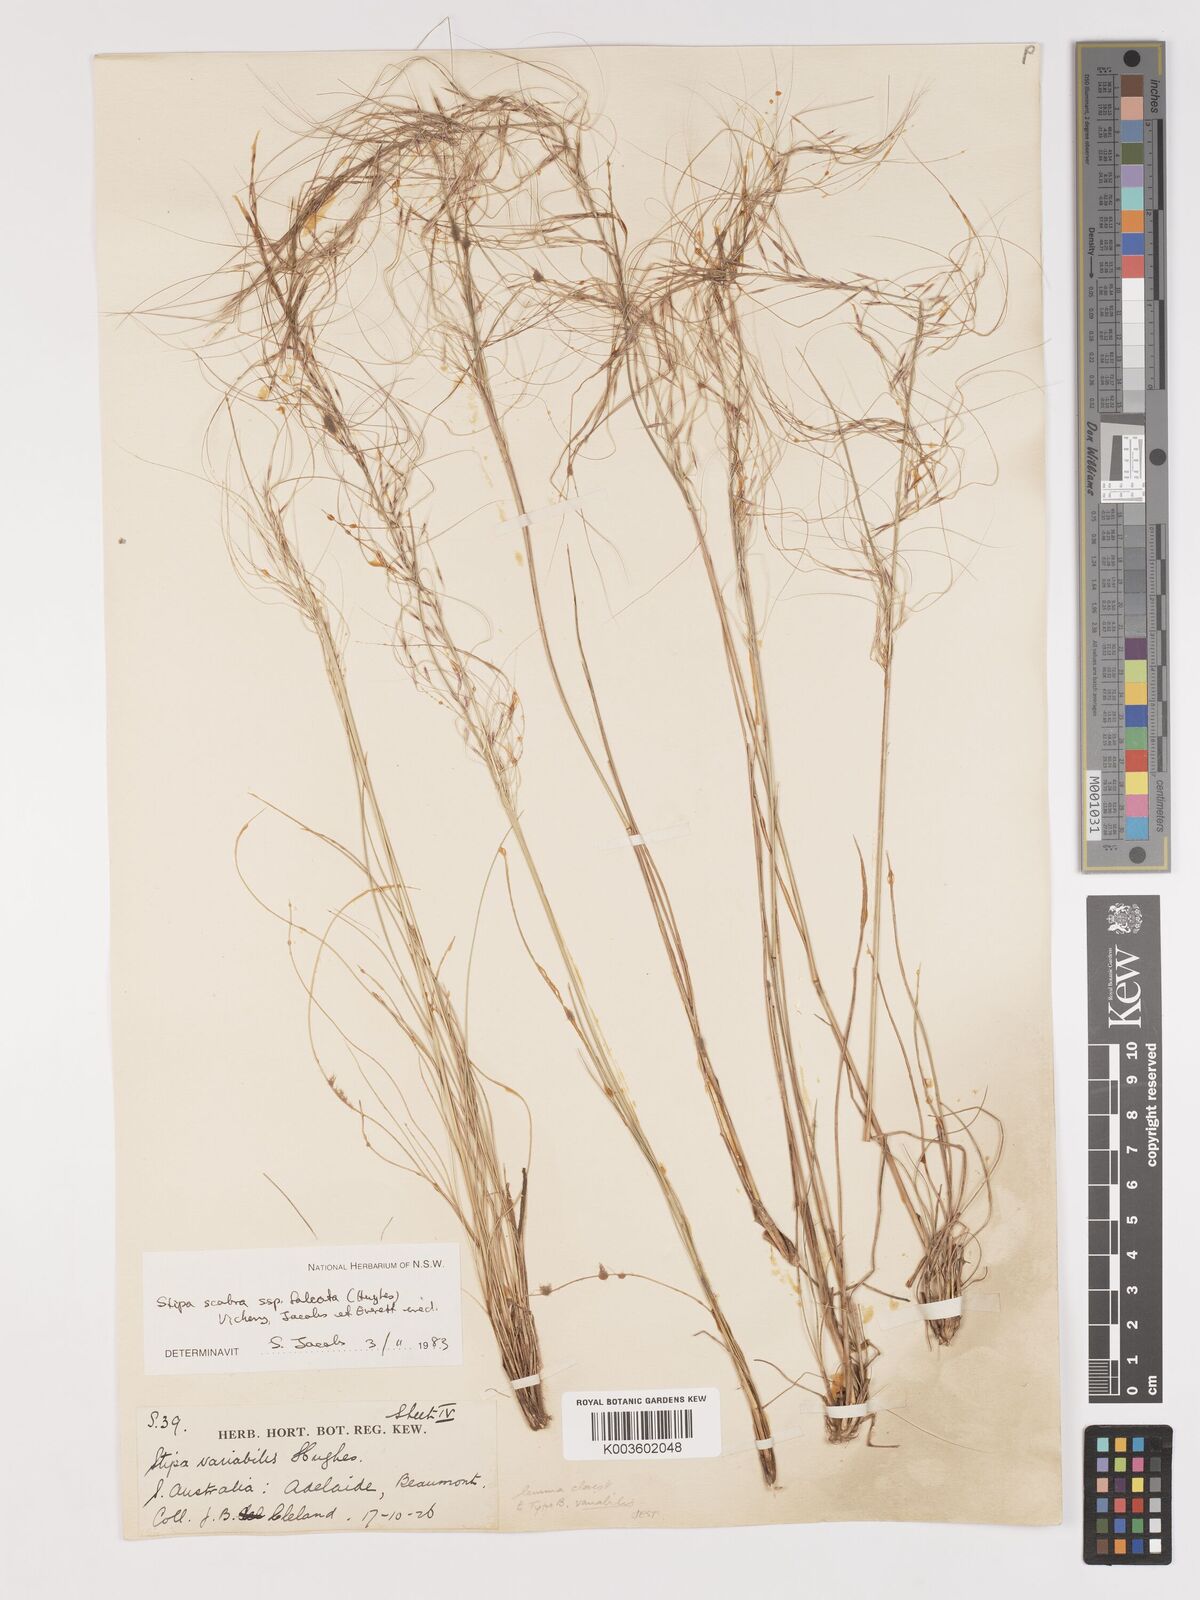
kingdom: Plantae
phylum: Tracheophyta
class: Liliopsida
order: Poales
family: Poaceae
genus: Austrostipa
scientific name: Austrostipa scabra
